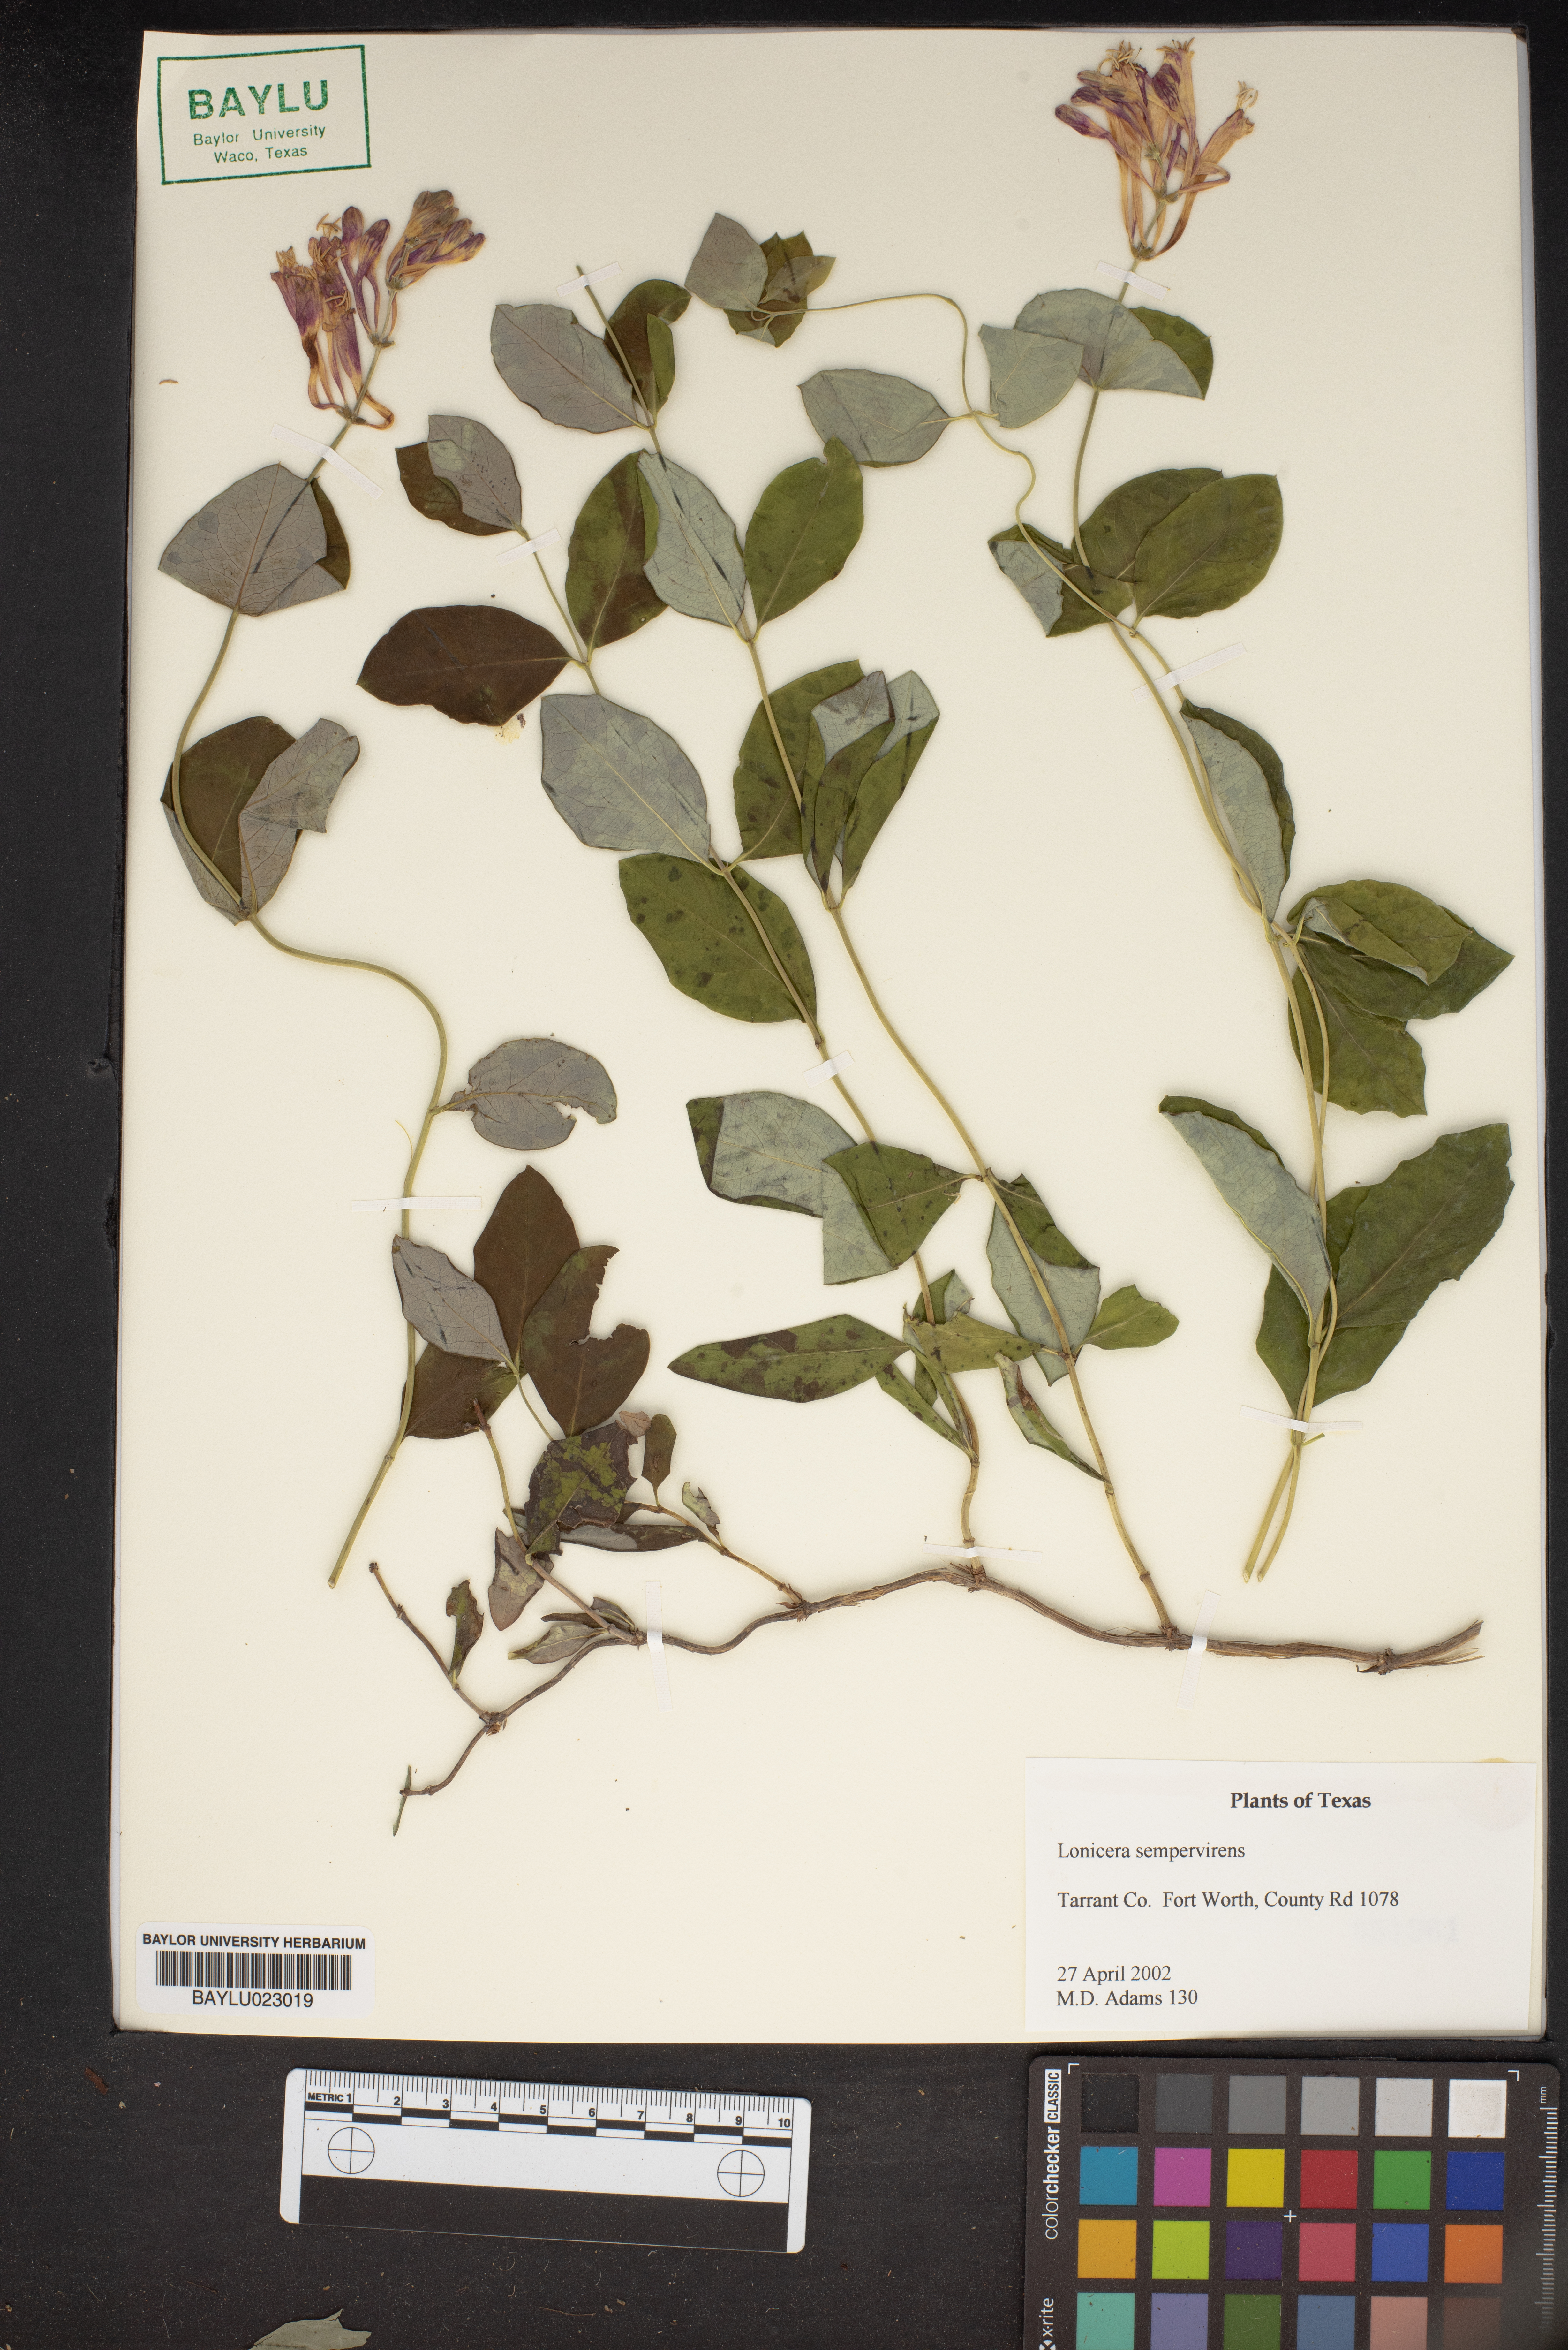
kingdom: Plantae
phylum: Tracheophyta
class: Magnoliopsida
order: Dipsacales
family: Caprifoliaceae
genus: Lonicera
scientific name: Lonicera sempervirens
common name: Coral honeysuckle
